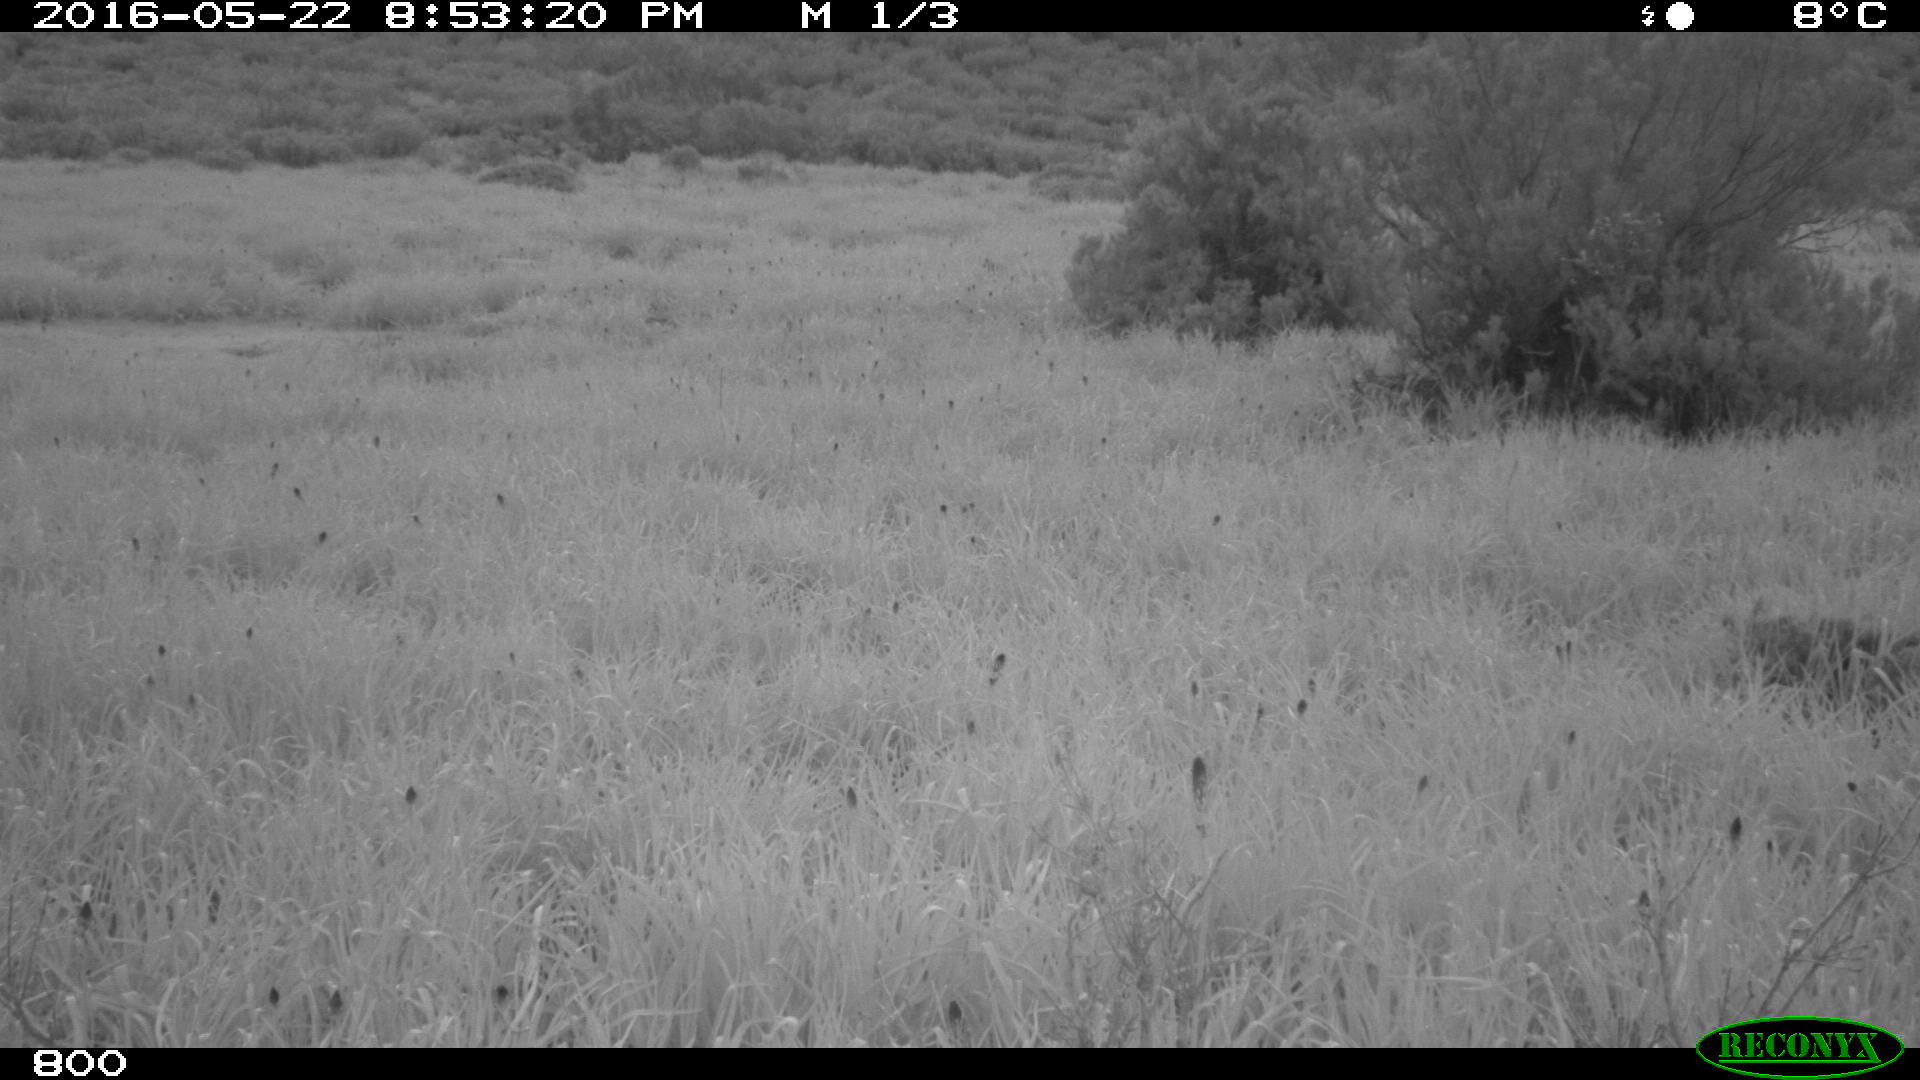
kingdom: Animalia
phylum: Chordata
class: Mammalia
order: Artiodactyla
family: Bovidae
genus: Bos
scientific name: Bos taurus
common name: Domesticated cattle
